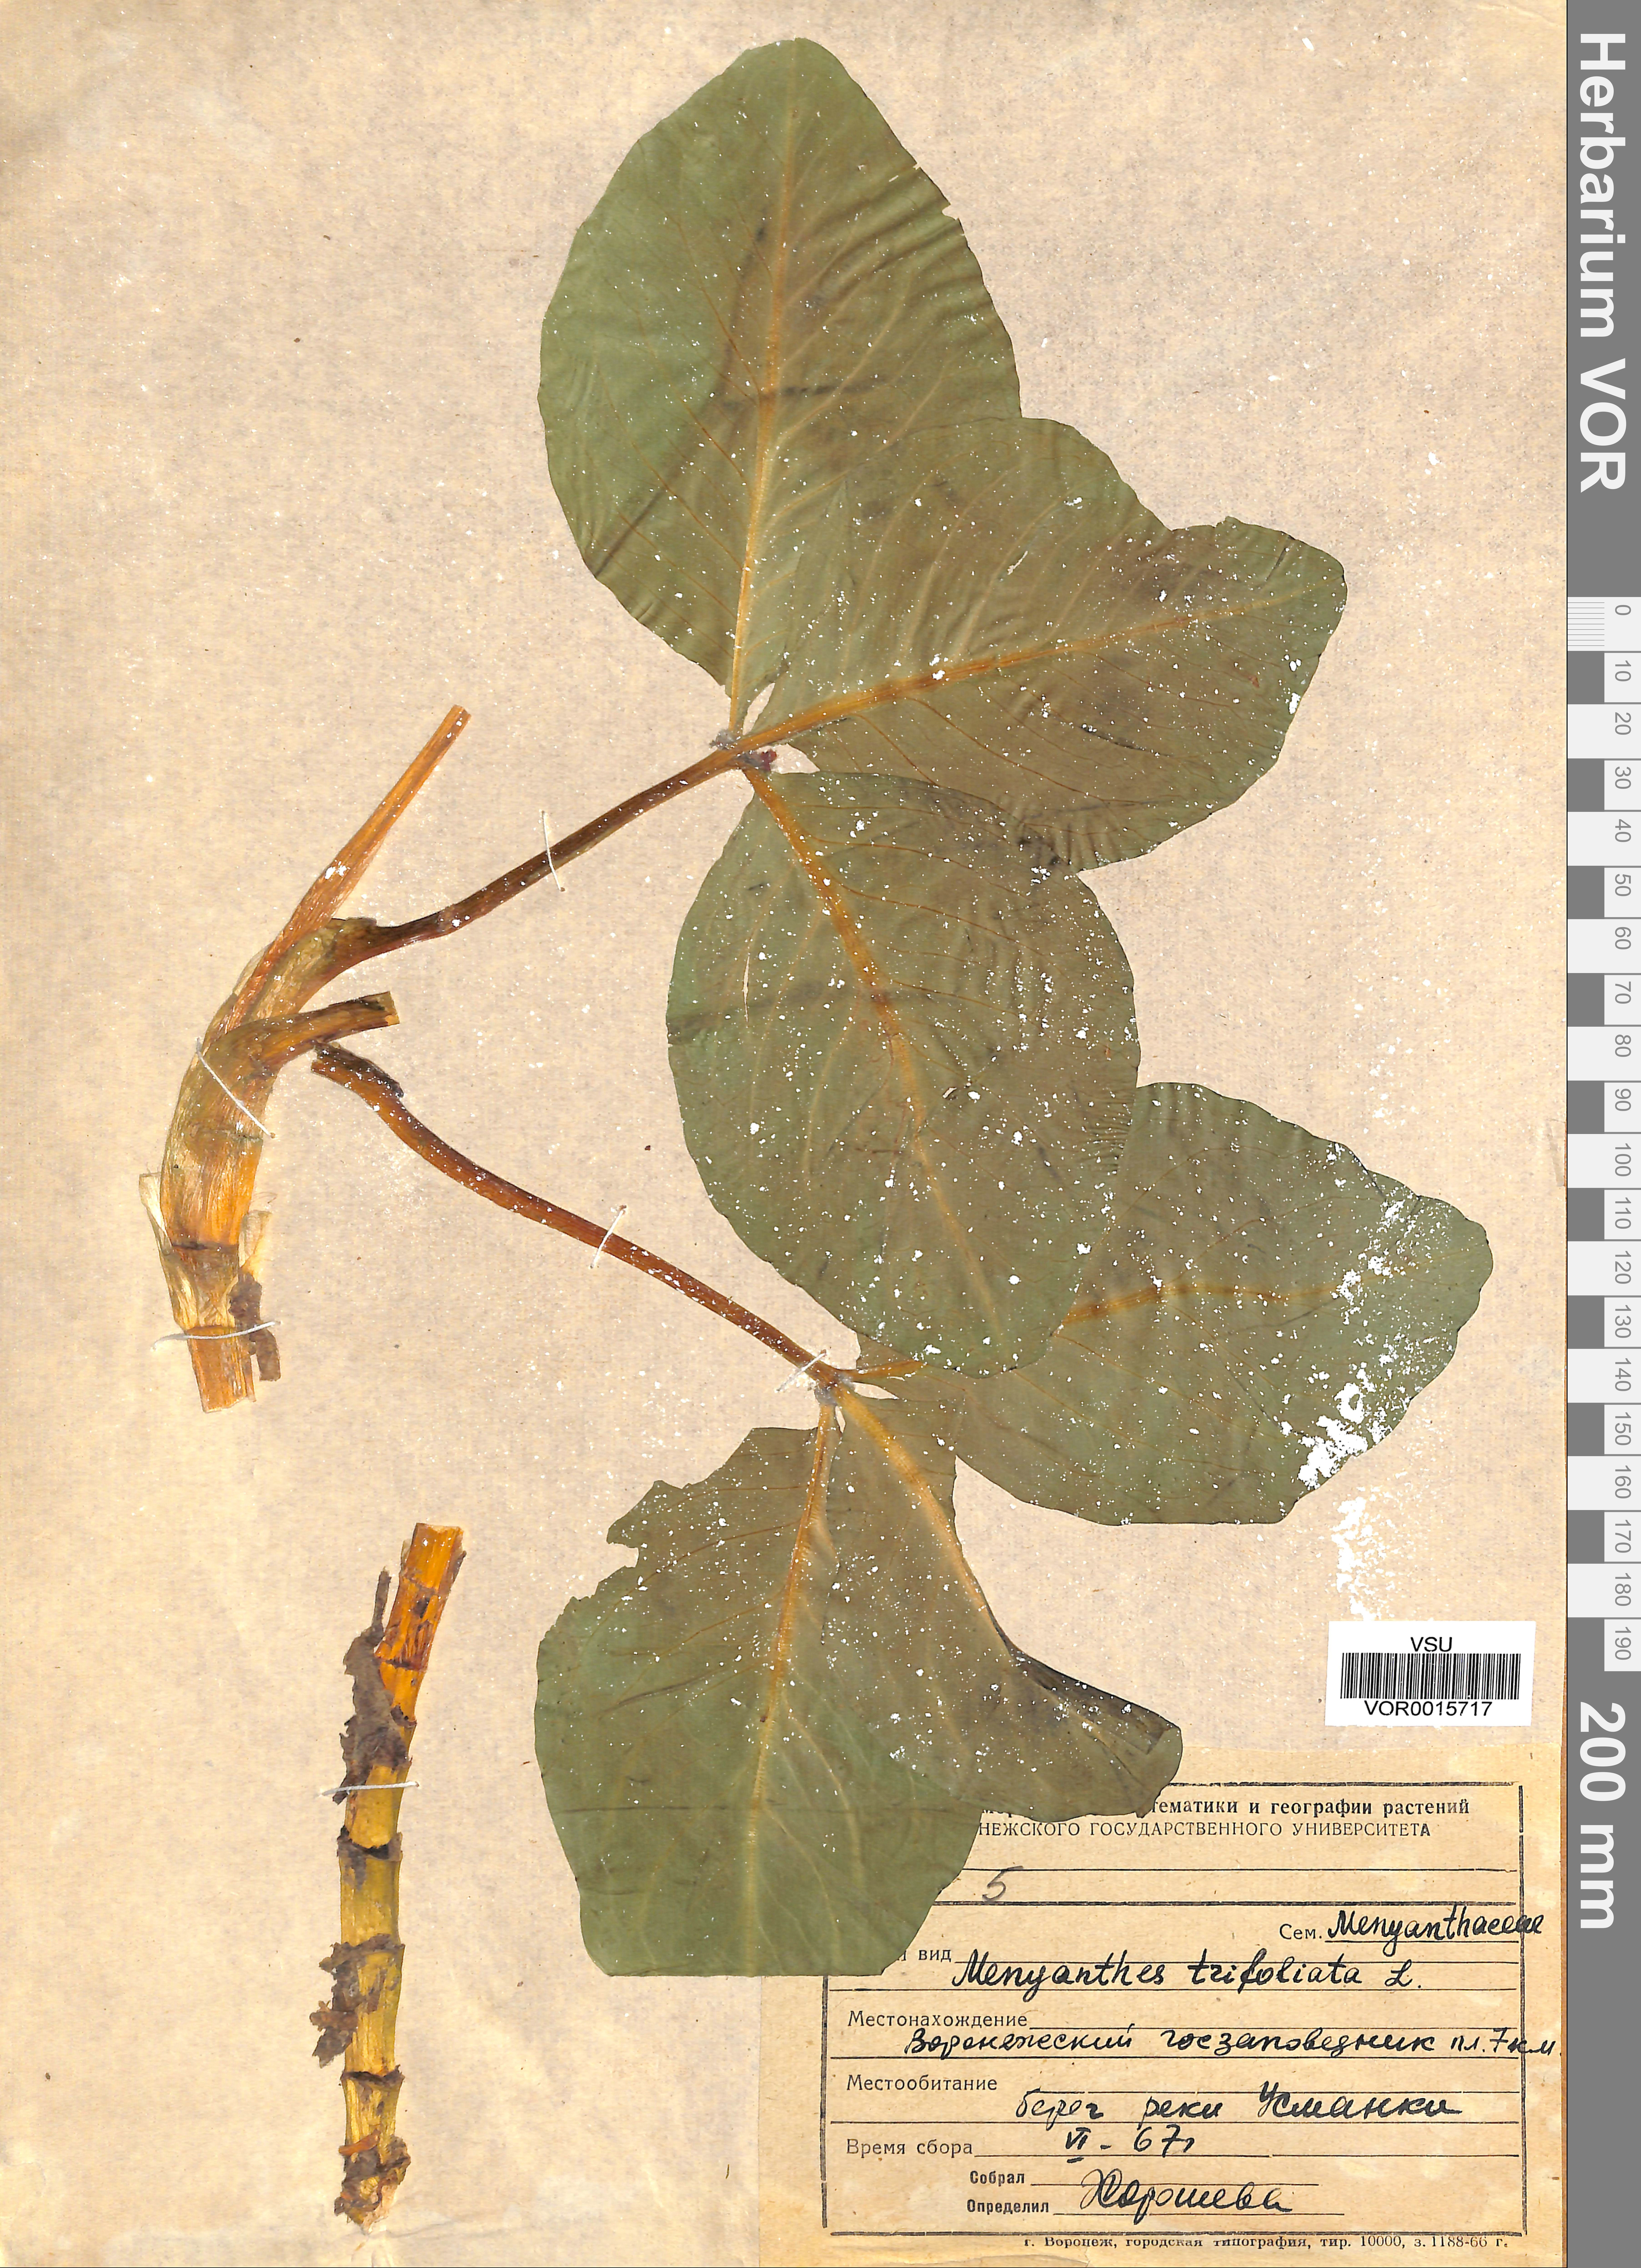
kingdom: Plantae
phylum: Tracheophyta
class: Magnoliopsida
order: Asterales
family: Menyanthaceae
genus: Menyanthes
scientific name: Menyanthes trifoliata
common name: Bogbean
